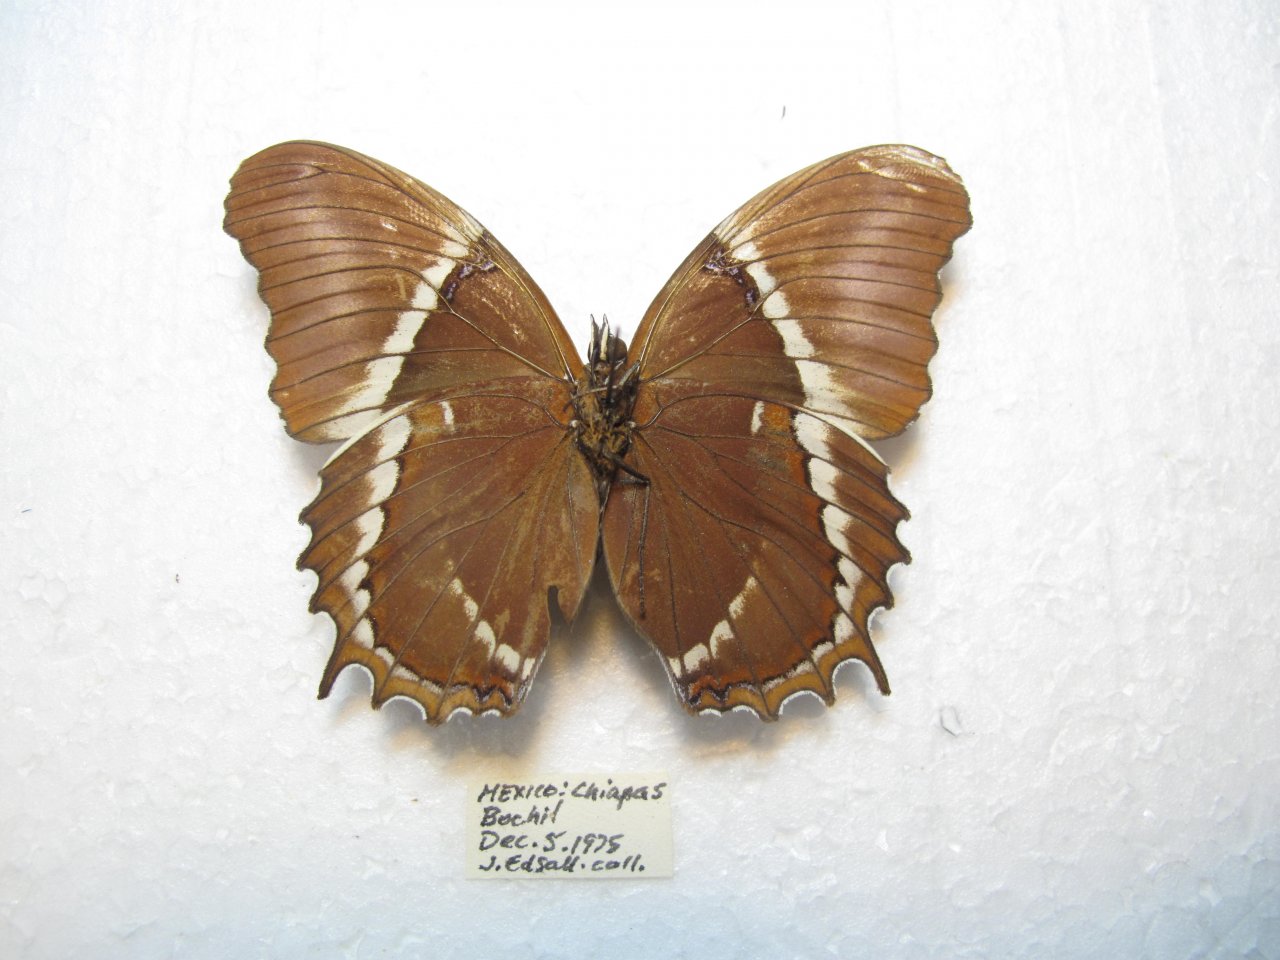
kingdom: Animalia
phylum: Arthropoda
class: Insecta
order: Lepidoptera
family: Nymphalidae
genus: Siproeta
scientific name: Siproeta epaphus
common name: Rusty-tipped Page
